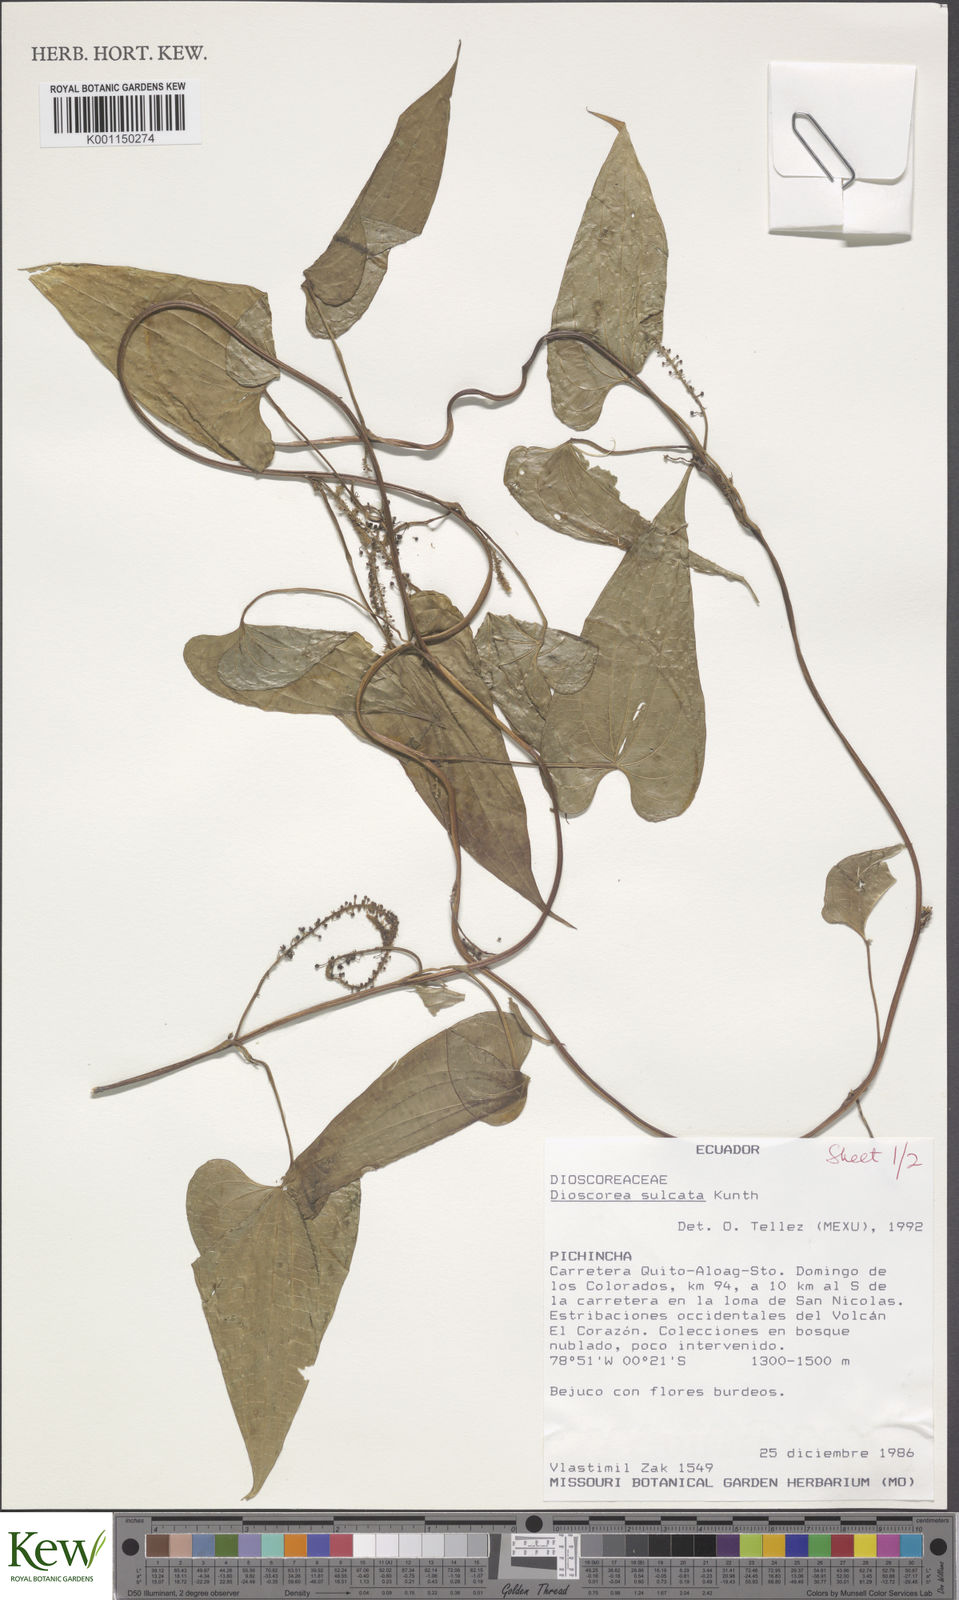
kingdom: Plantae
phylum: Tracheophyta
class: Liliopsida
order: Dioscoreales
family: Dioscoreaceae
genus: Dioscorea
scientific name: Dioscorea acanthogene
